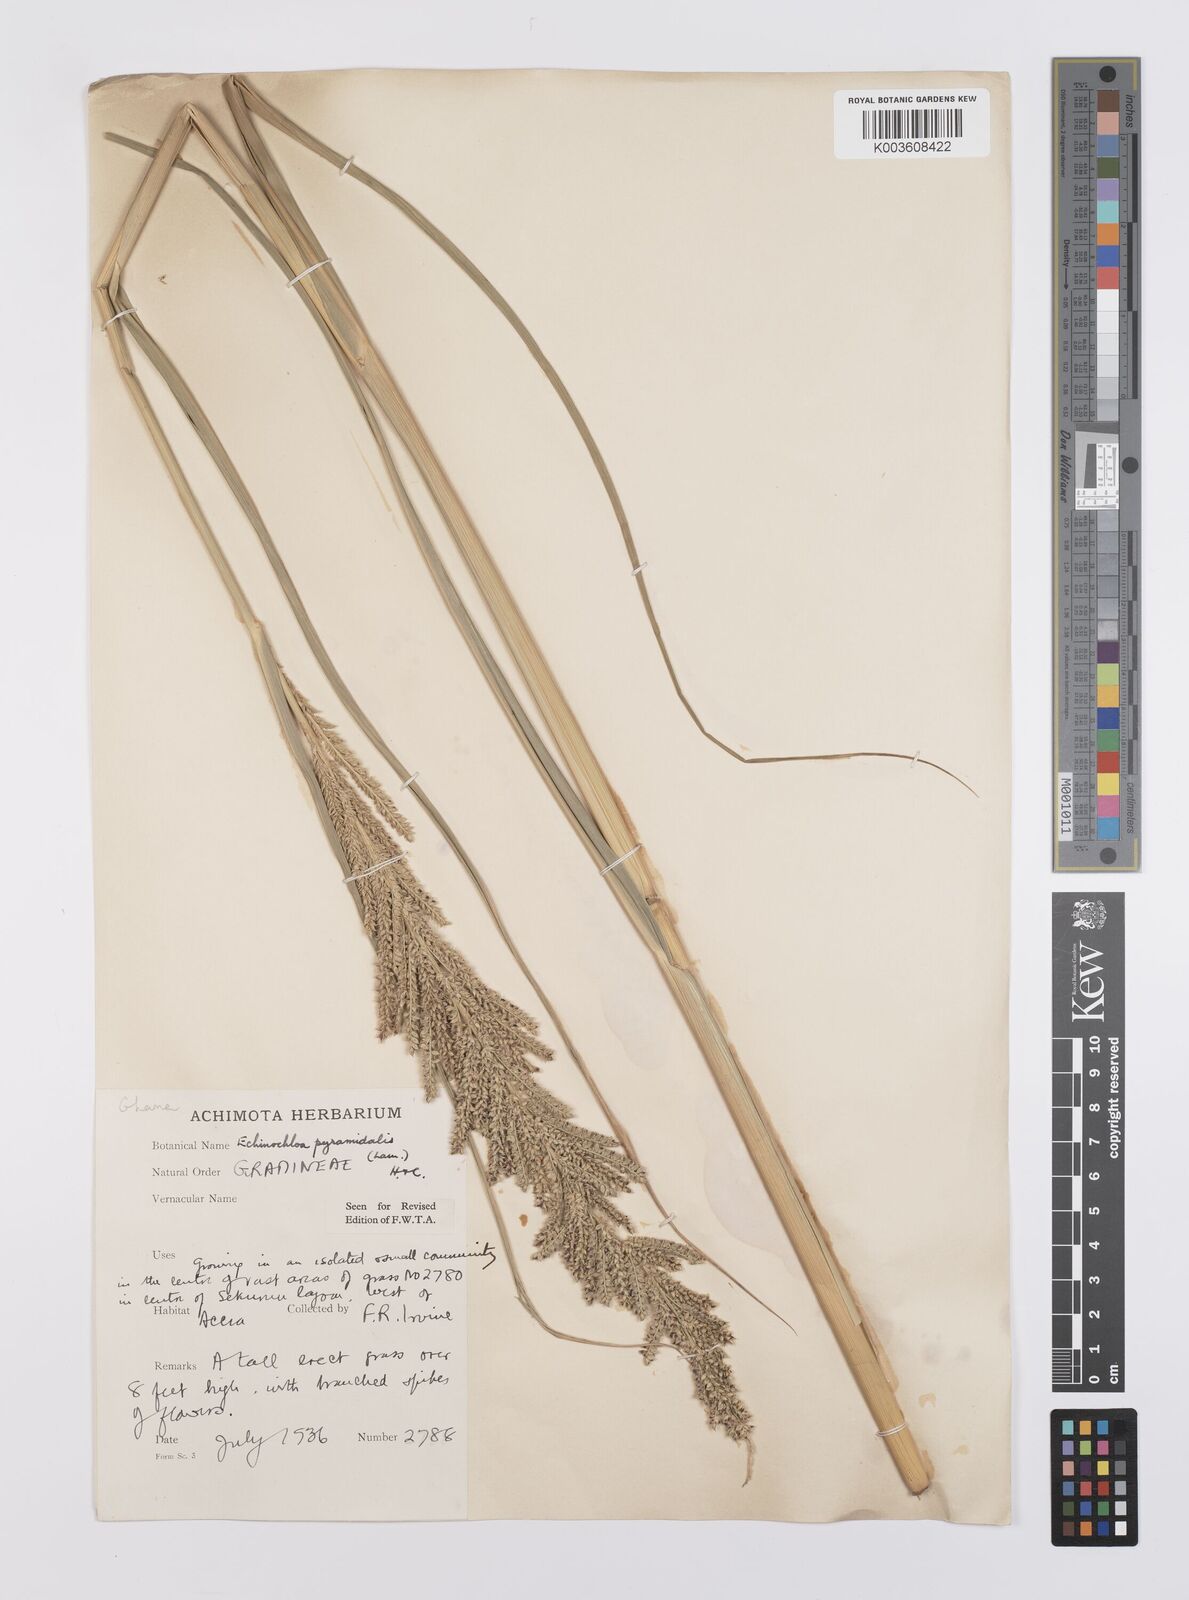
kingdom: Plantae
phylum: Tracheophyta
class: Liliopsida
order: Poales
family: Poaceae
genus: Echinochloa
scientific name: Echinochloa pyramidalis
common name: Antelope grass
